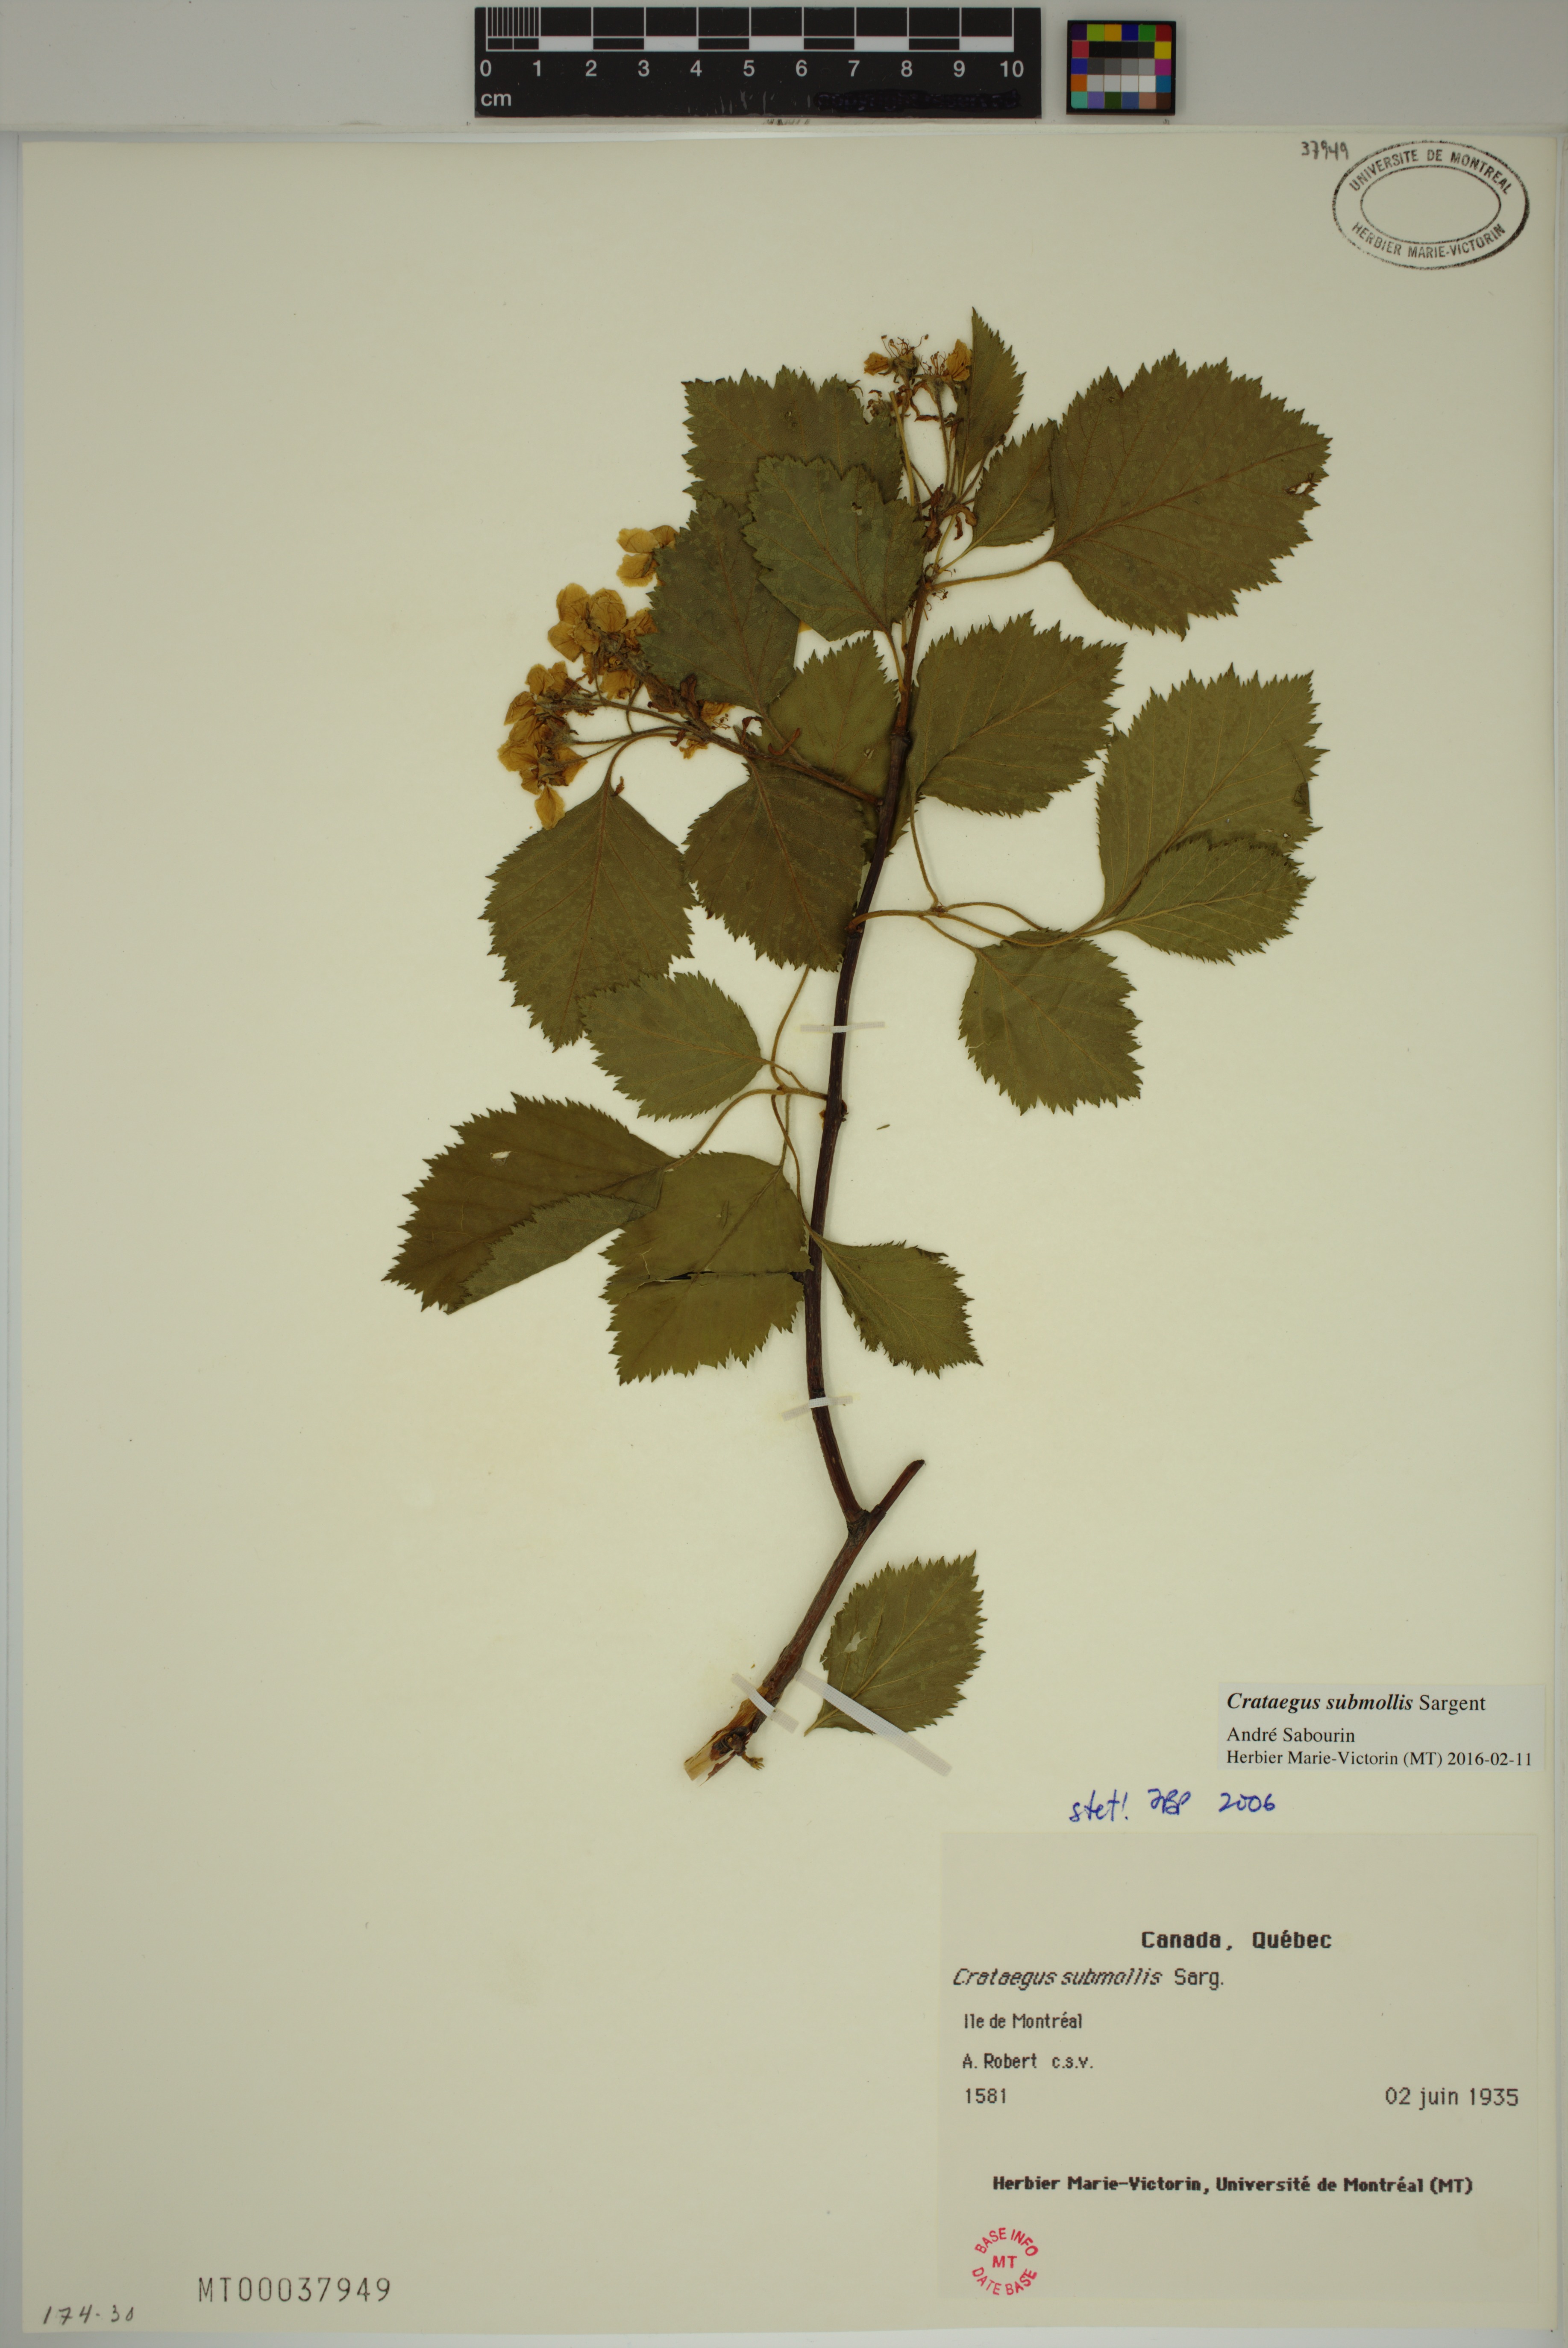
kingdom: Plantae
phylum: Tracheophyta
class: Magnoliopsida
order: Rosales
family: Rosaceae
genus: Crataegus
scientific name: Crataegus submollis
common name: Hairy cockspurthorn
